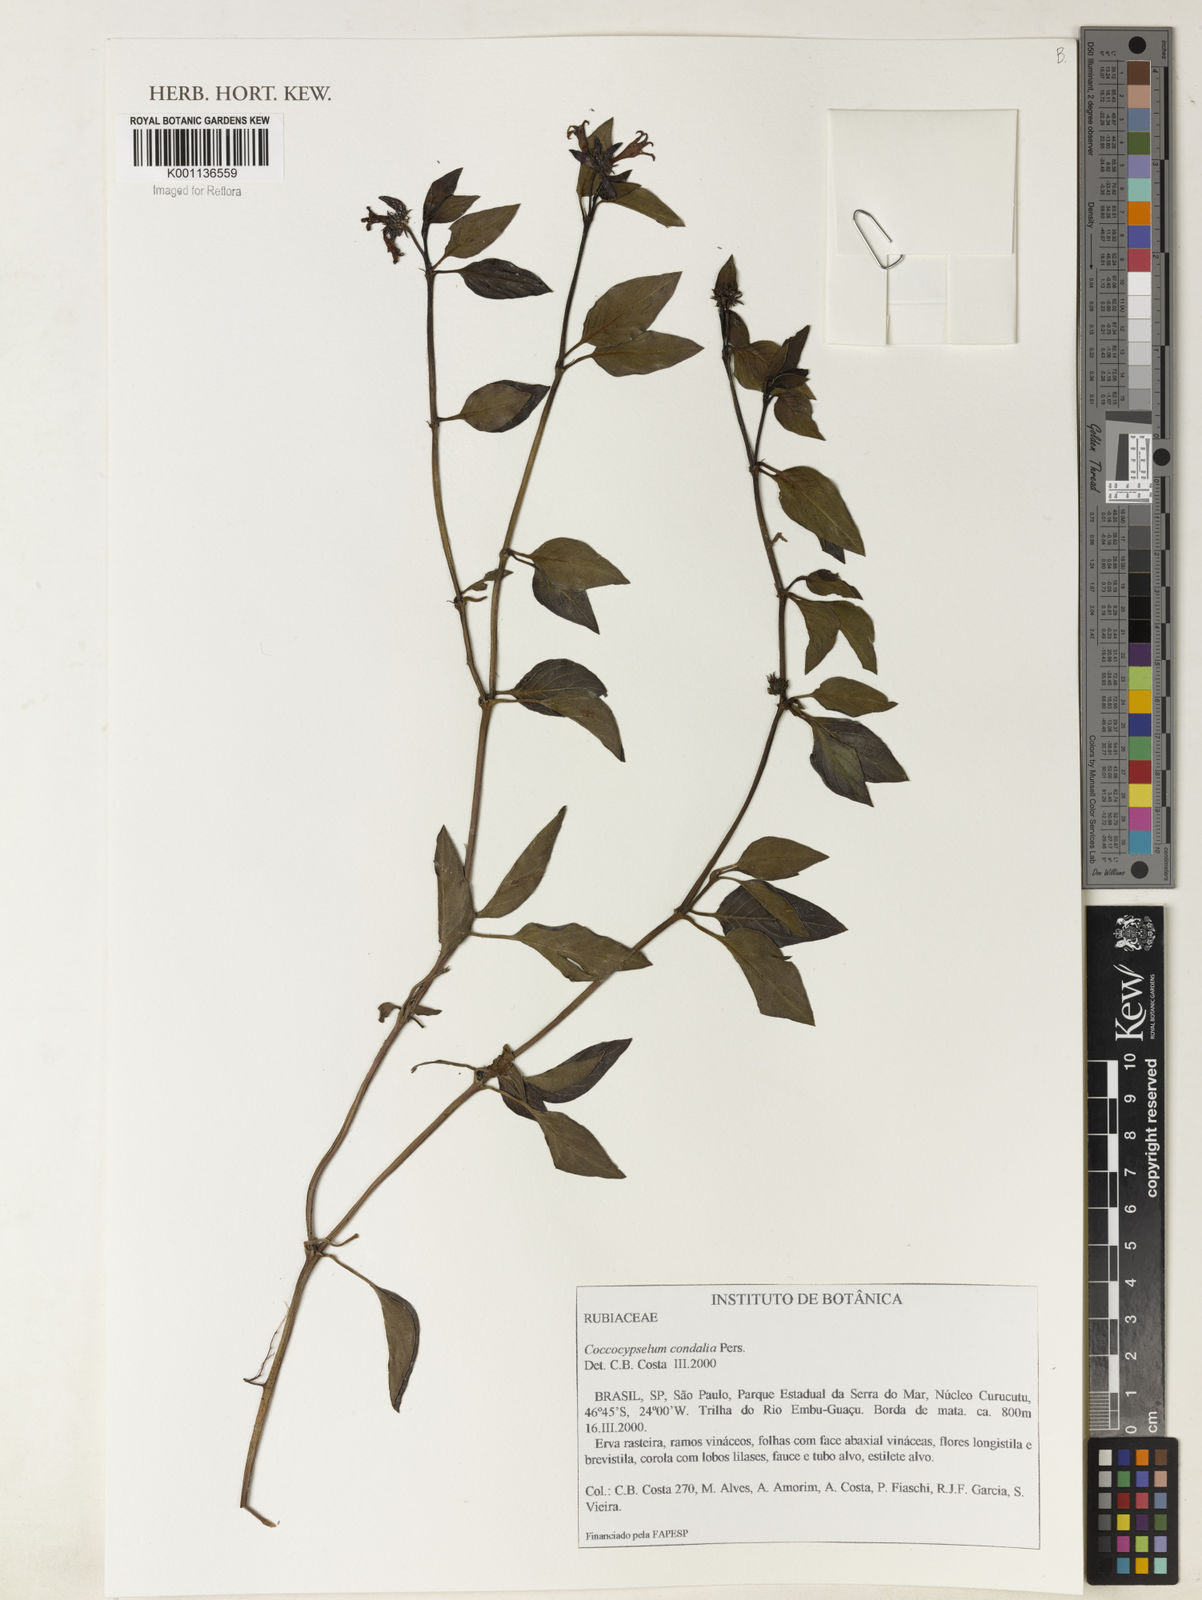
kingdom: Plantae
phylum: Tracheophyta
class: Magnoliopsida
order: Gentianales
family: Rubiaceae
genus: Coccocypselum
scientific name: Coccocypselum condalia
